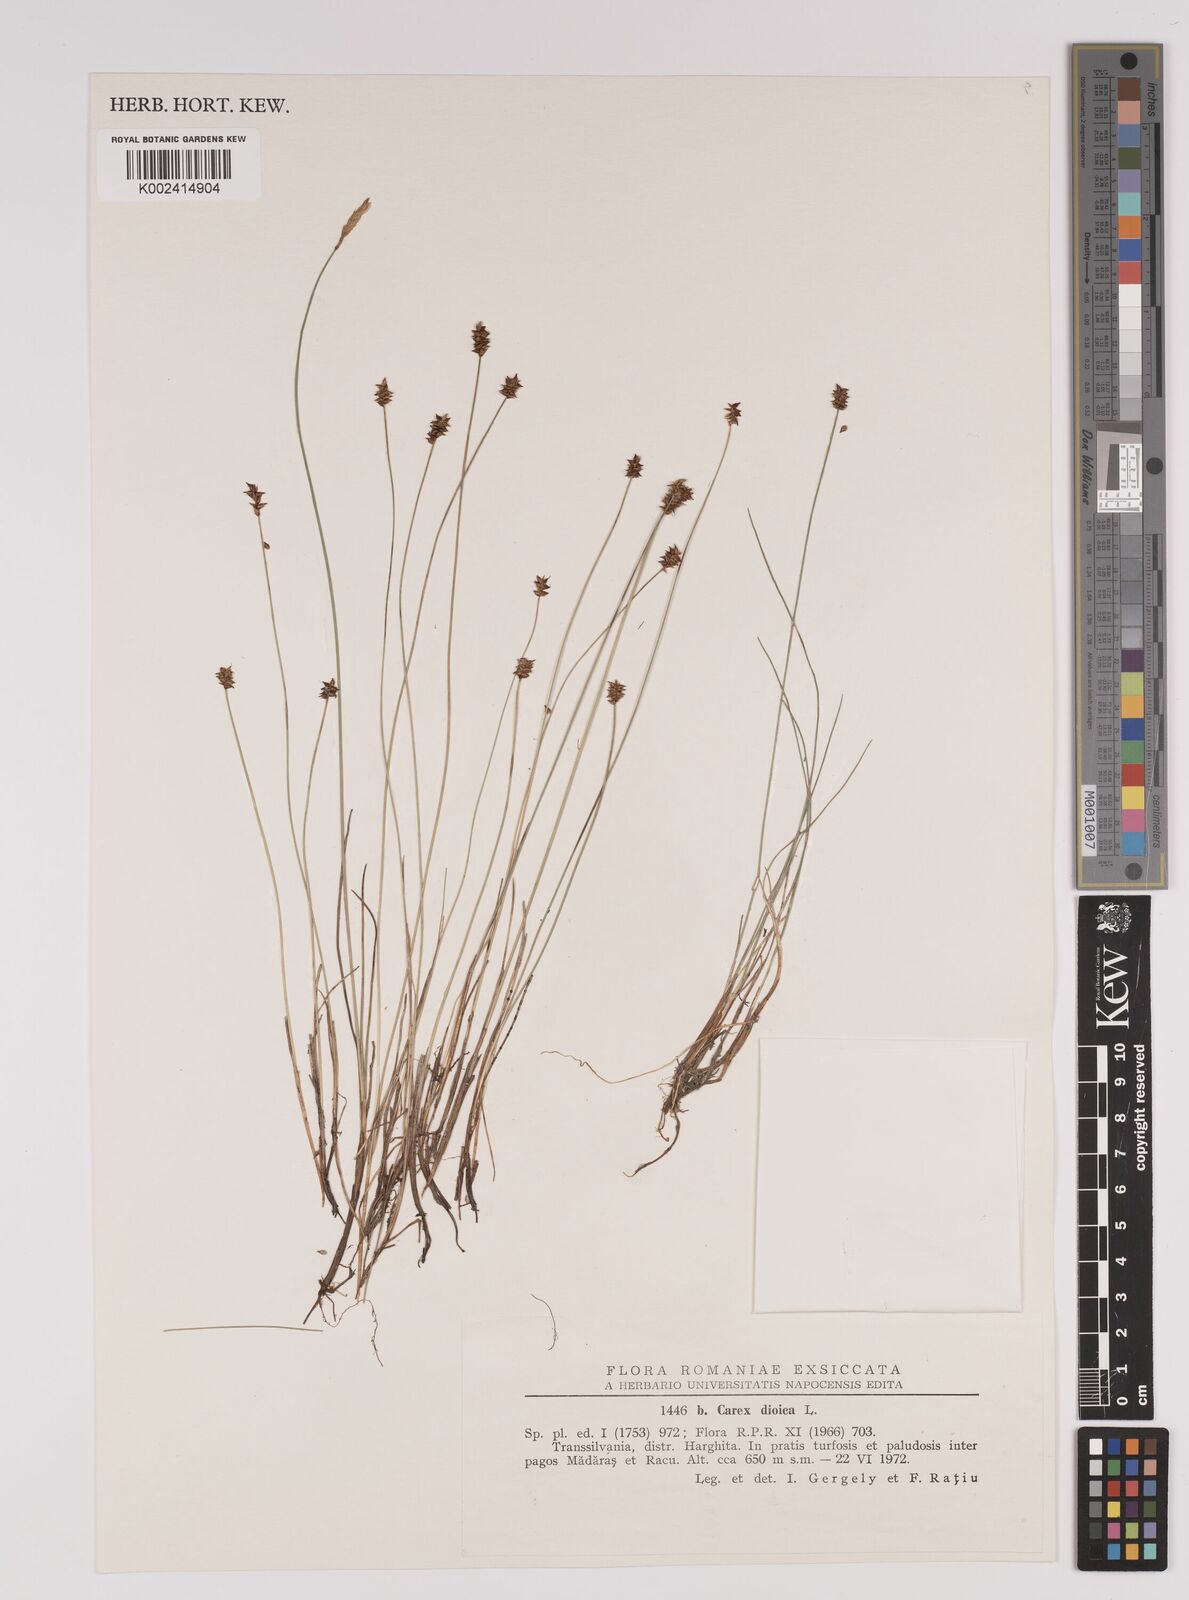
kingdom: Plantae
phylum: Tracheophyta
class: Liliopsida
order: Poales
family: Cyperaceae
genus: Carex
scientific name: Carex dioica
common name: Dioecious sedge
